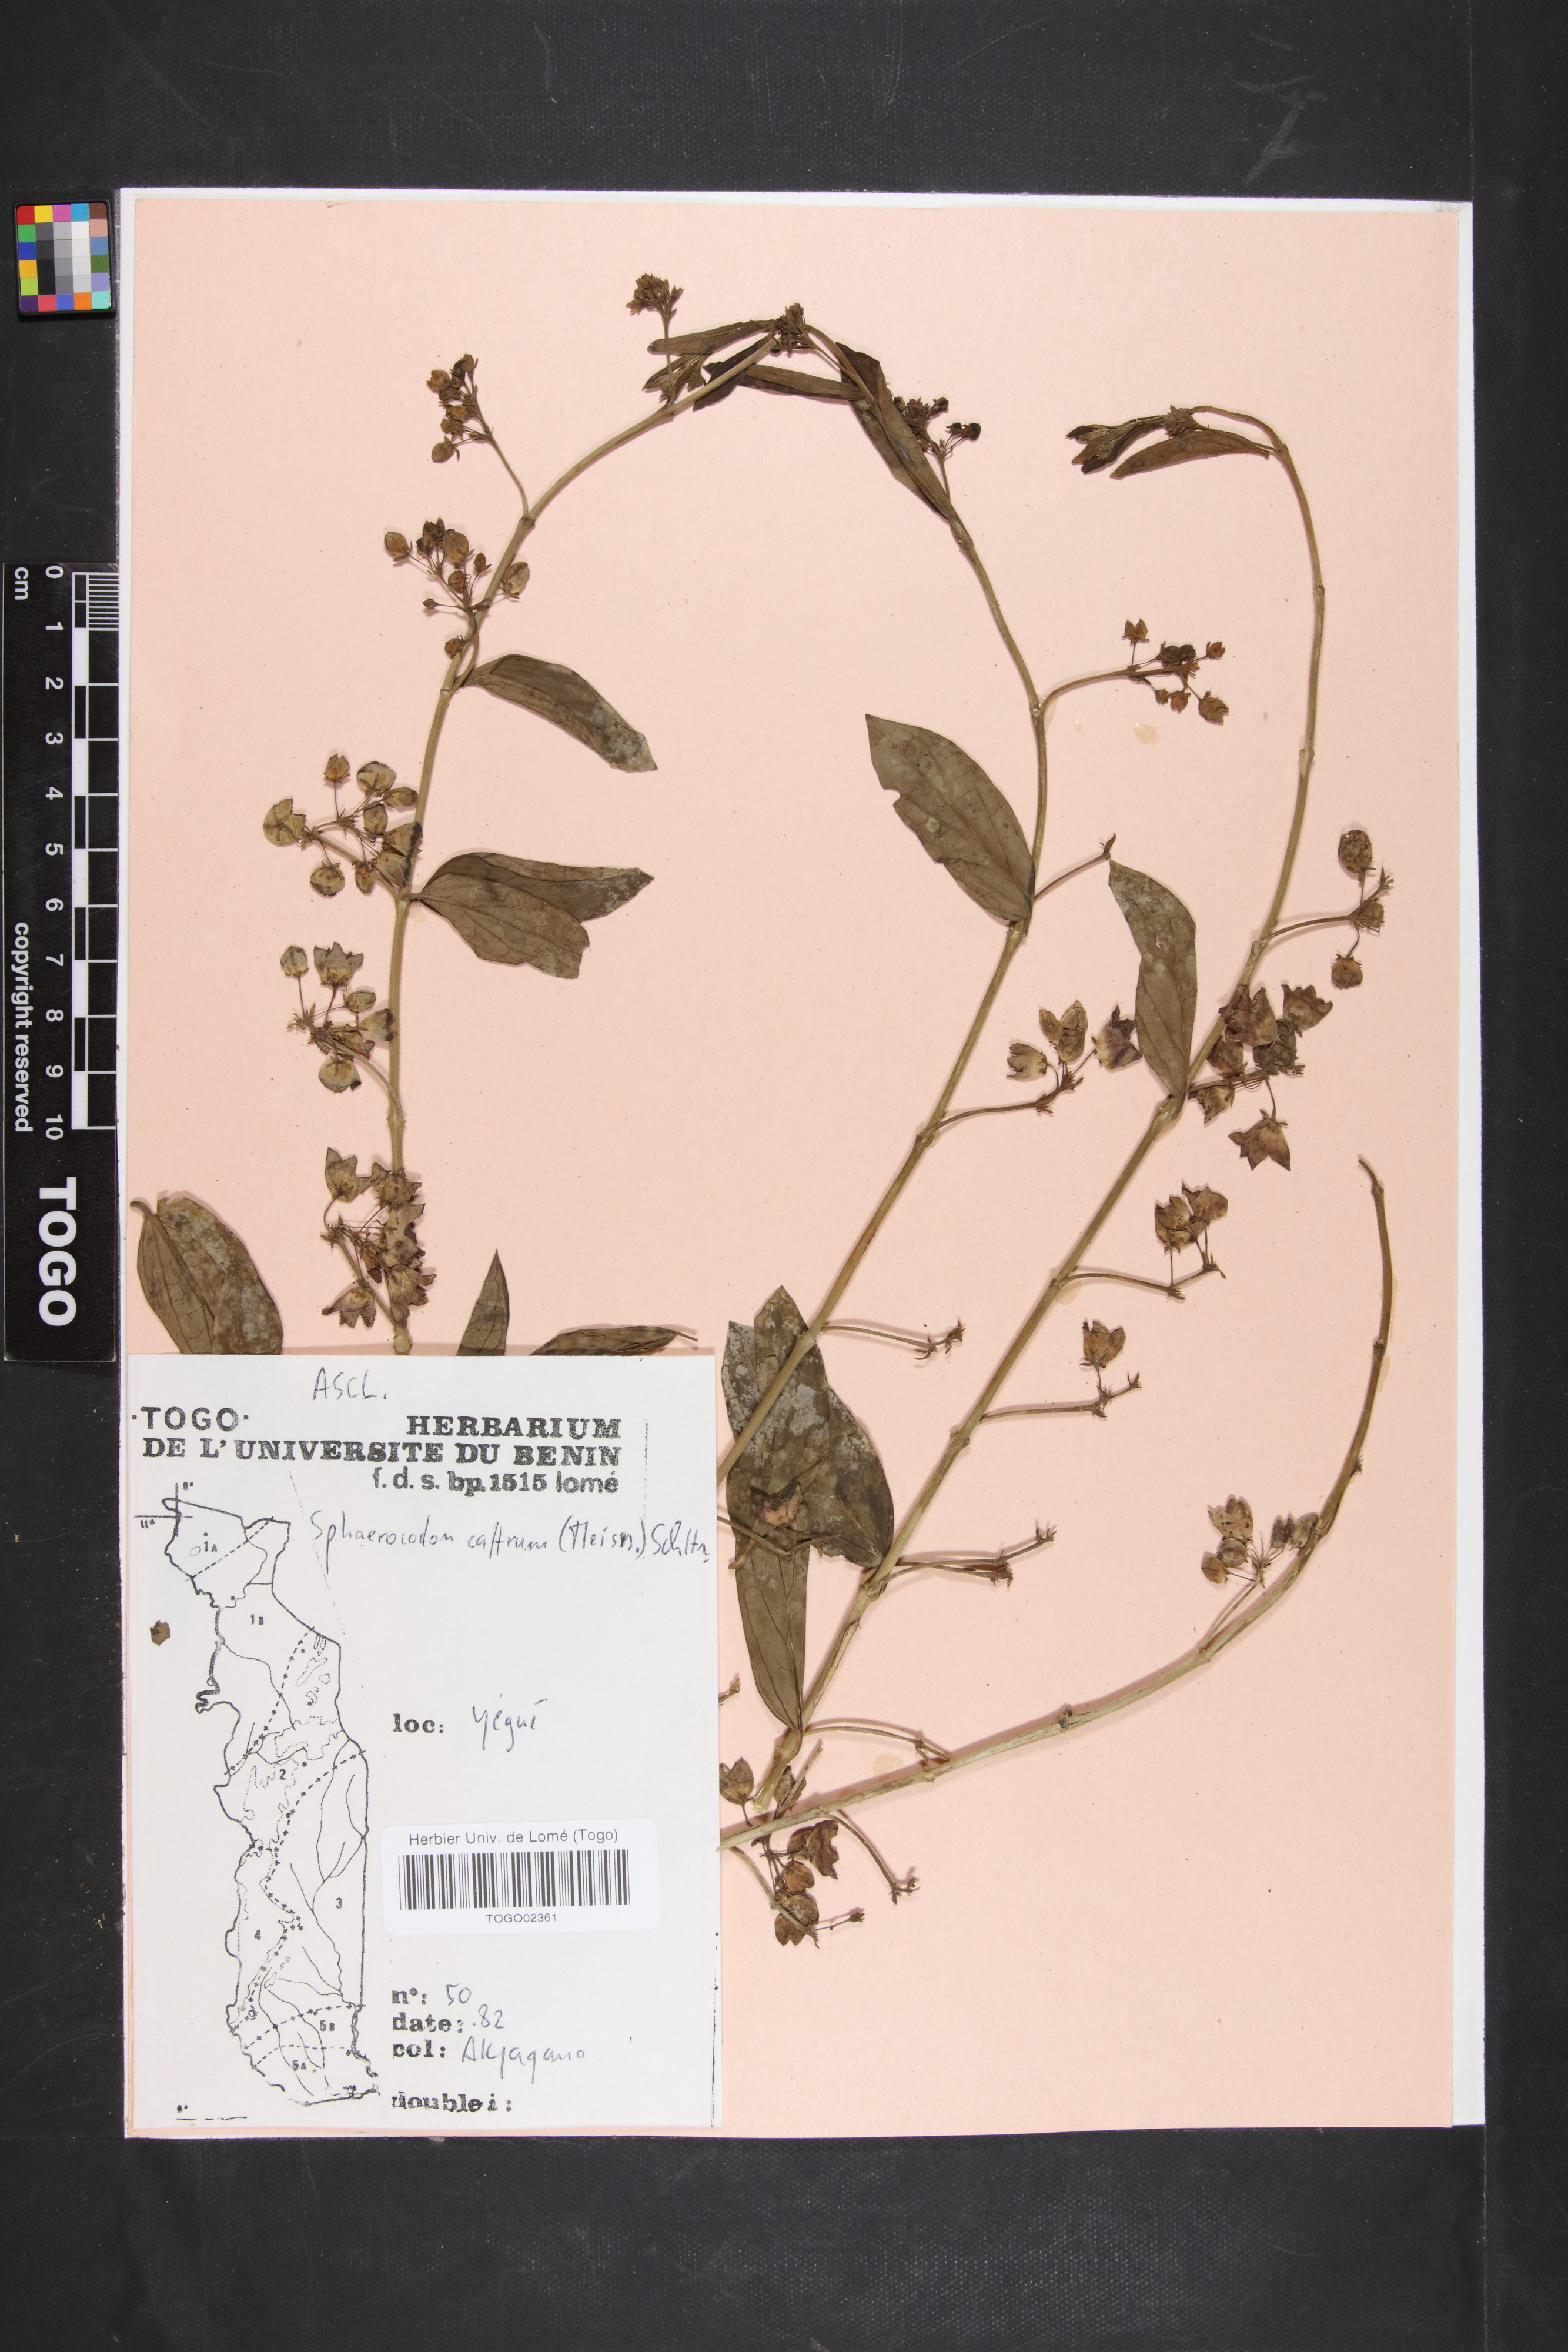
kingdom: Plantae
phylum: Tracheophyta
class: Magnoliopsida
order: Gentianales
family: Apocynaceae
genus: Vincetoxicum
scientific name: Vincetoxicum caffrum
